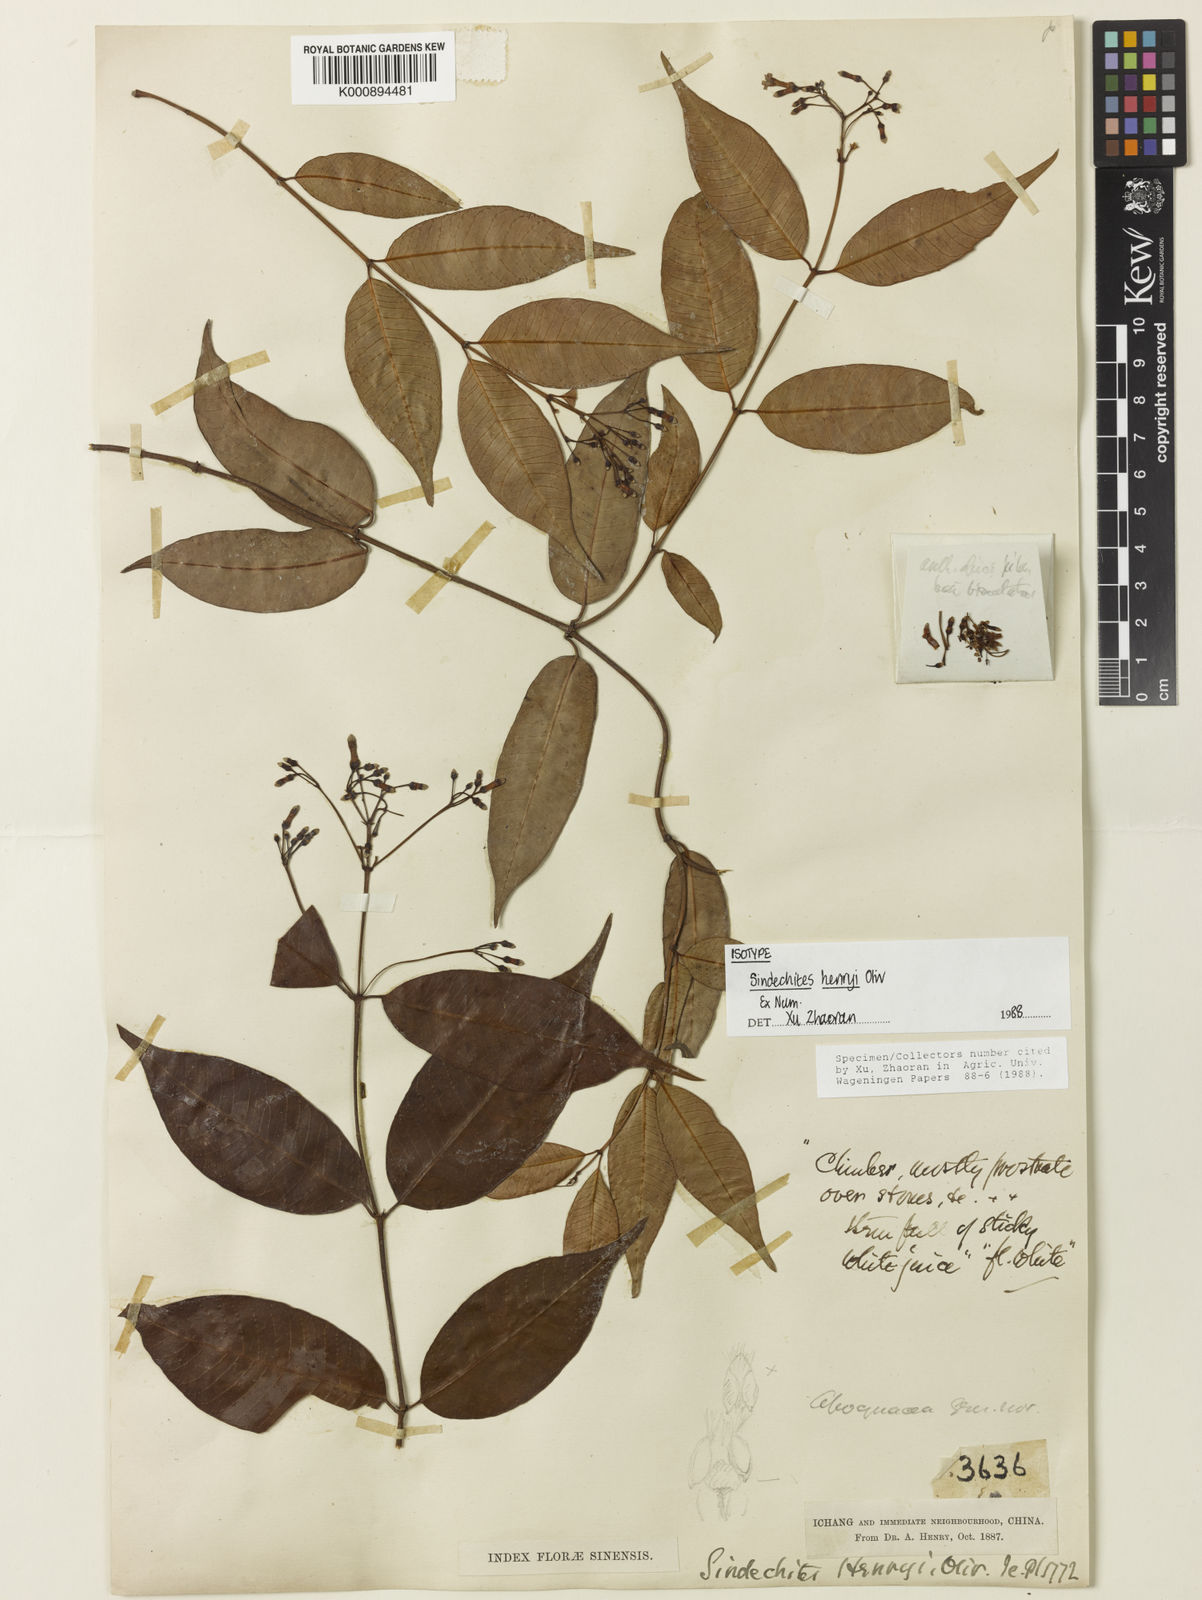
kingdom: Plantae
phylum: Tracheophyta
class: Magnoliopsida
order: Gentianales
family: Apocynaceae
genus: Sindechites
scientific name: Sindechites henryi
